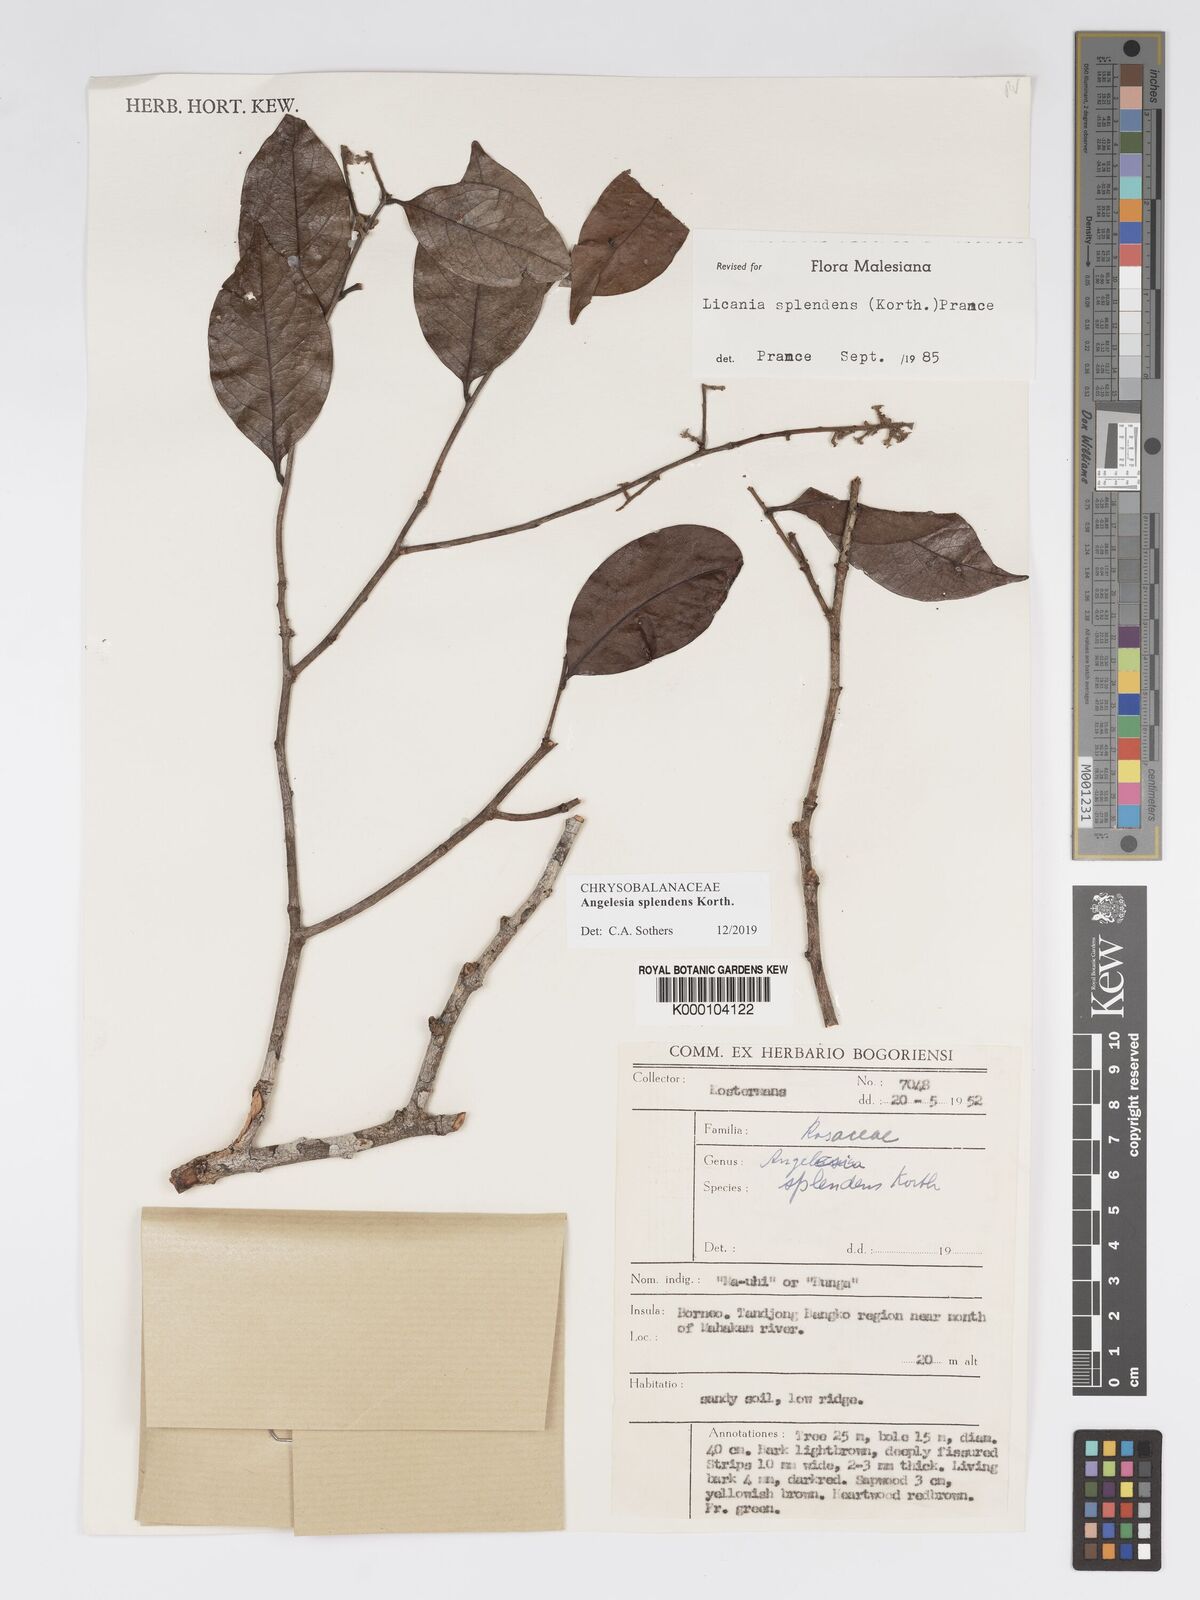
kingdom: Plantae
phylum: Tracheophyta
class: Magnoliopsida
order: Malpighiales
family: Chrysobalanaceae
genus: Angelesia
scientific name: Angelesia splendens
